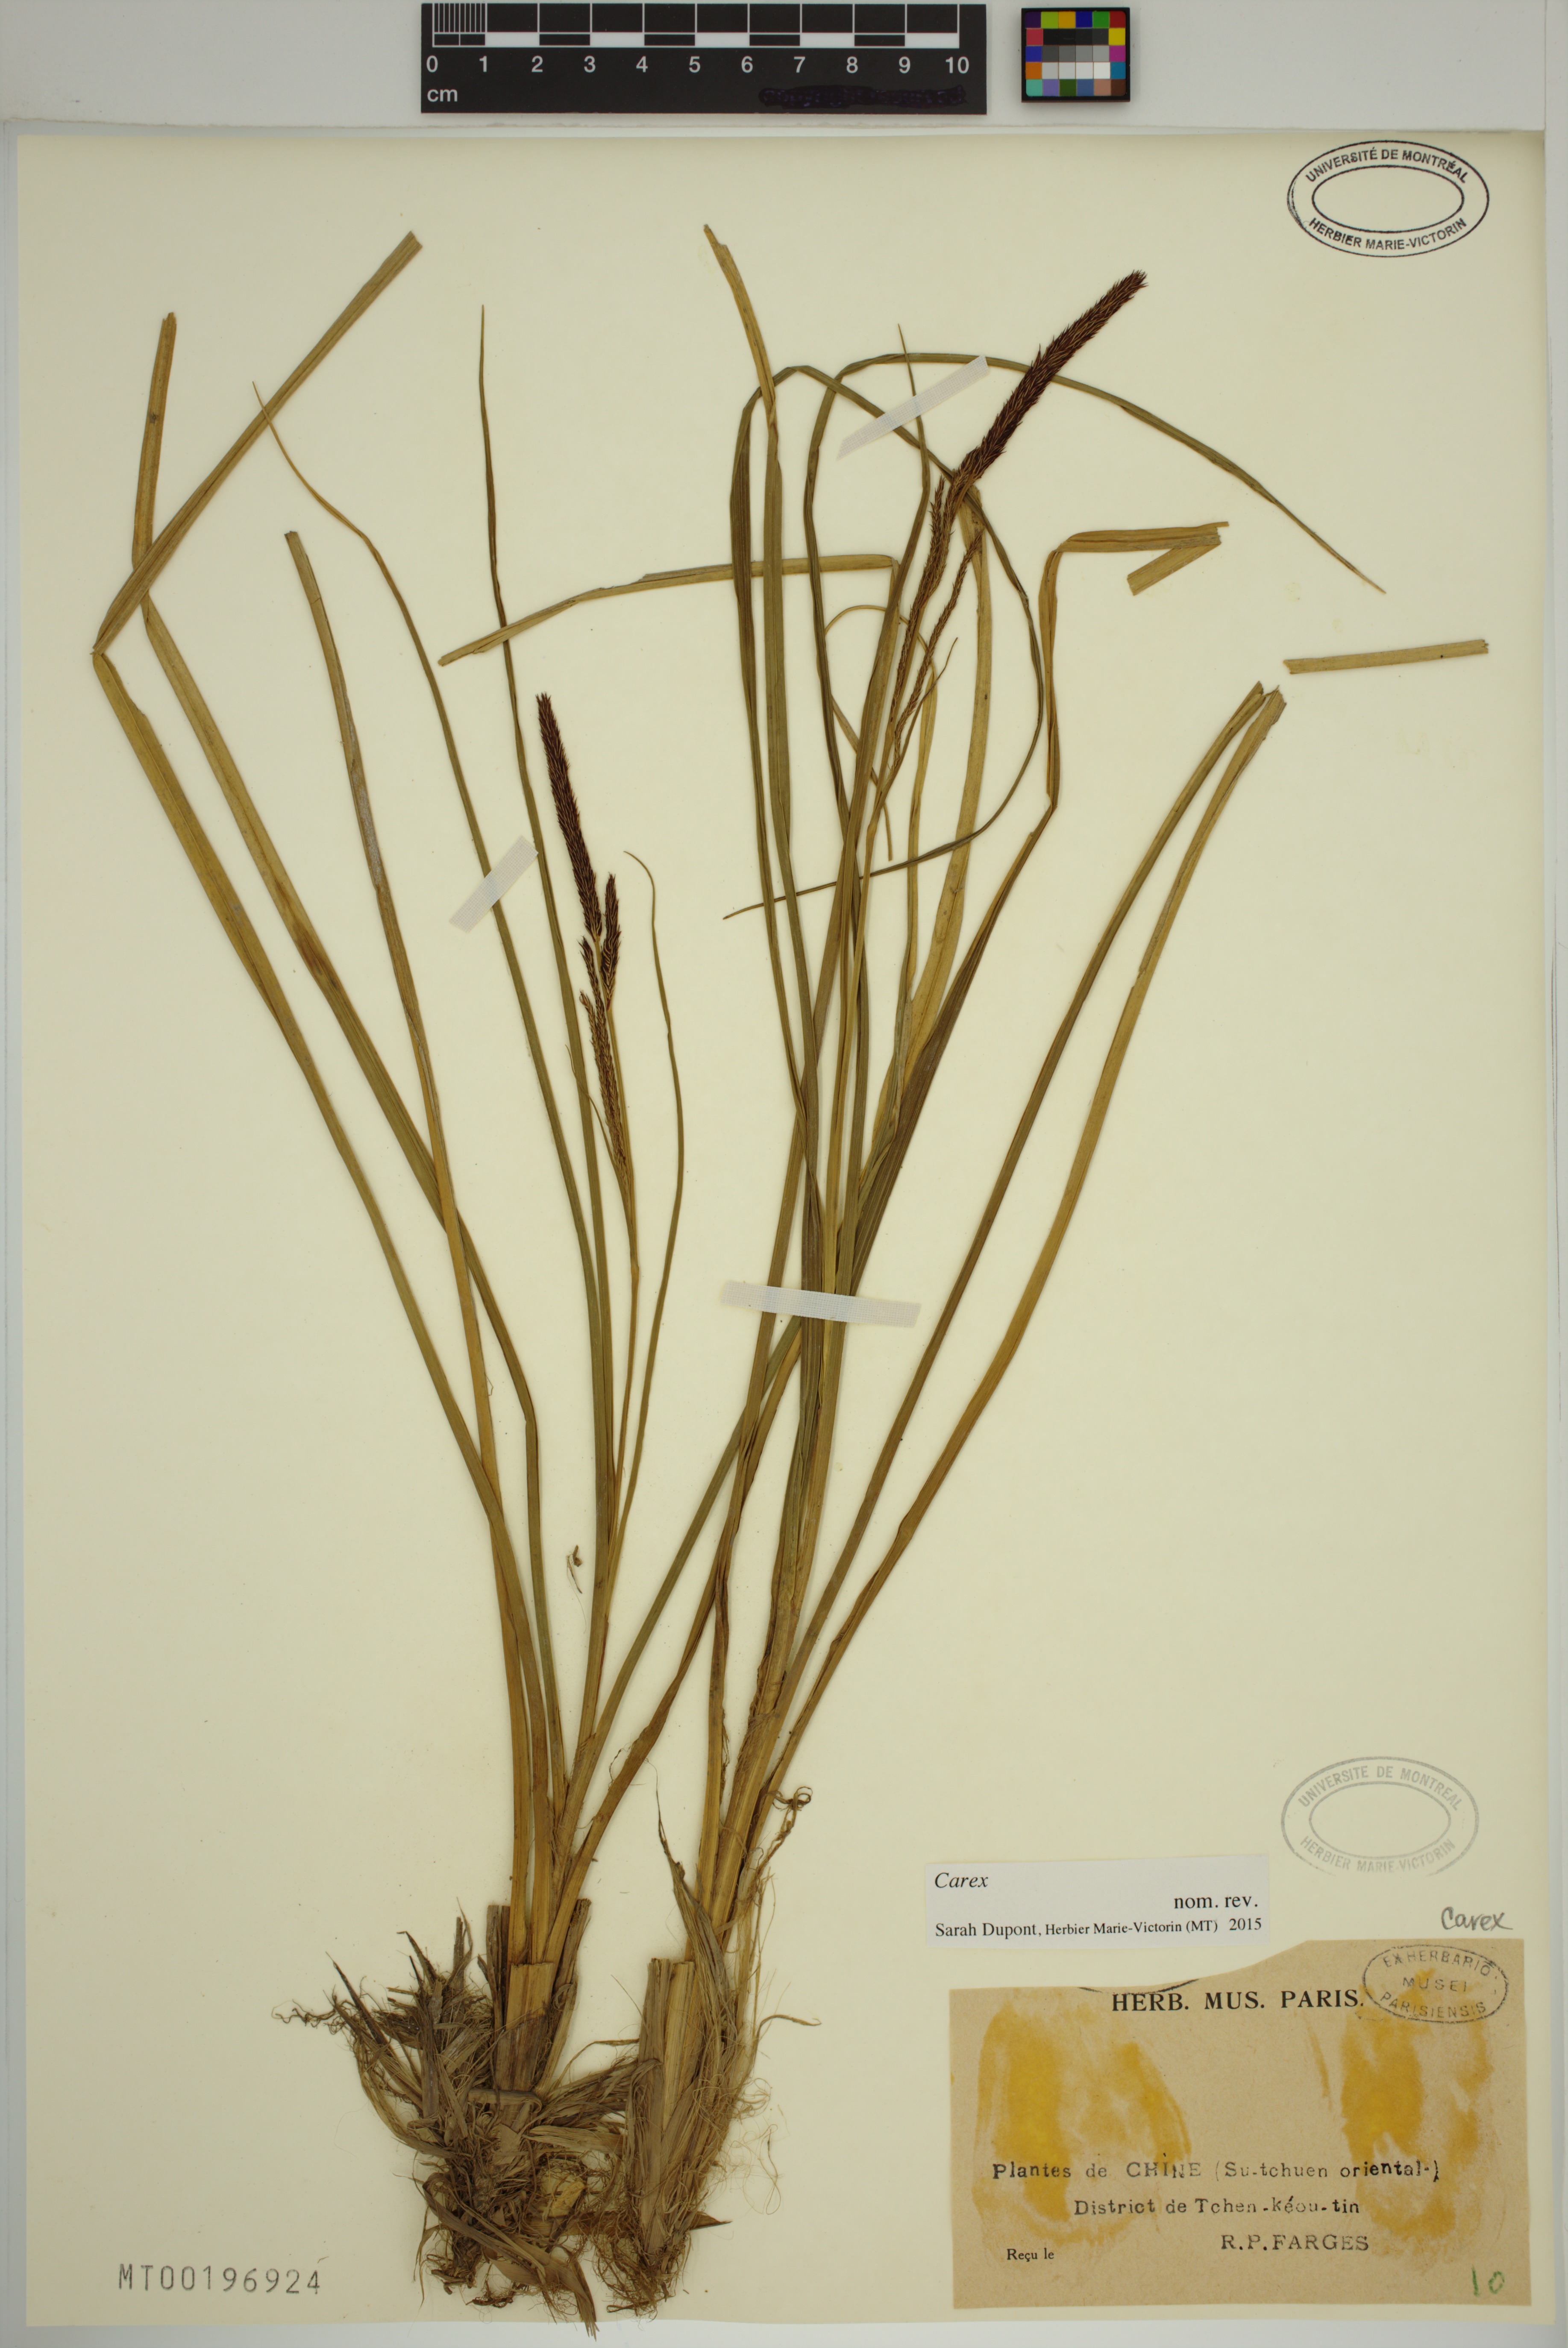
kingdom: Plantae
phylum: Tracheophyta
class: Liliopsida
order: Poales
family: Cyperaceae
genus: Carex
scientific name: Carex
